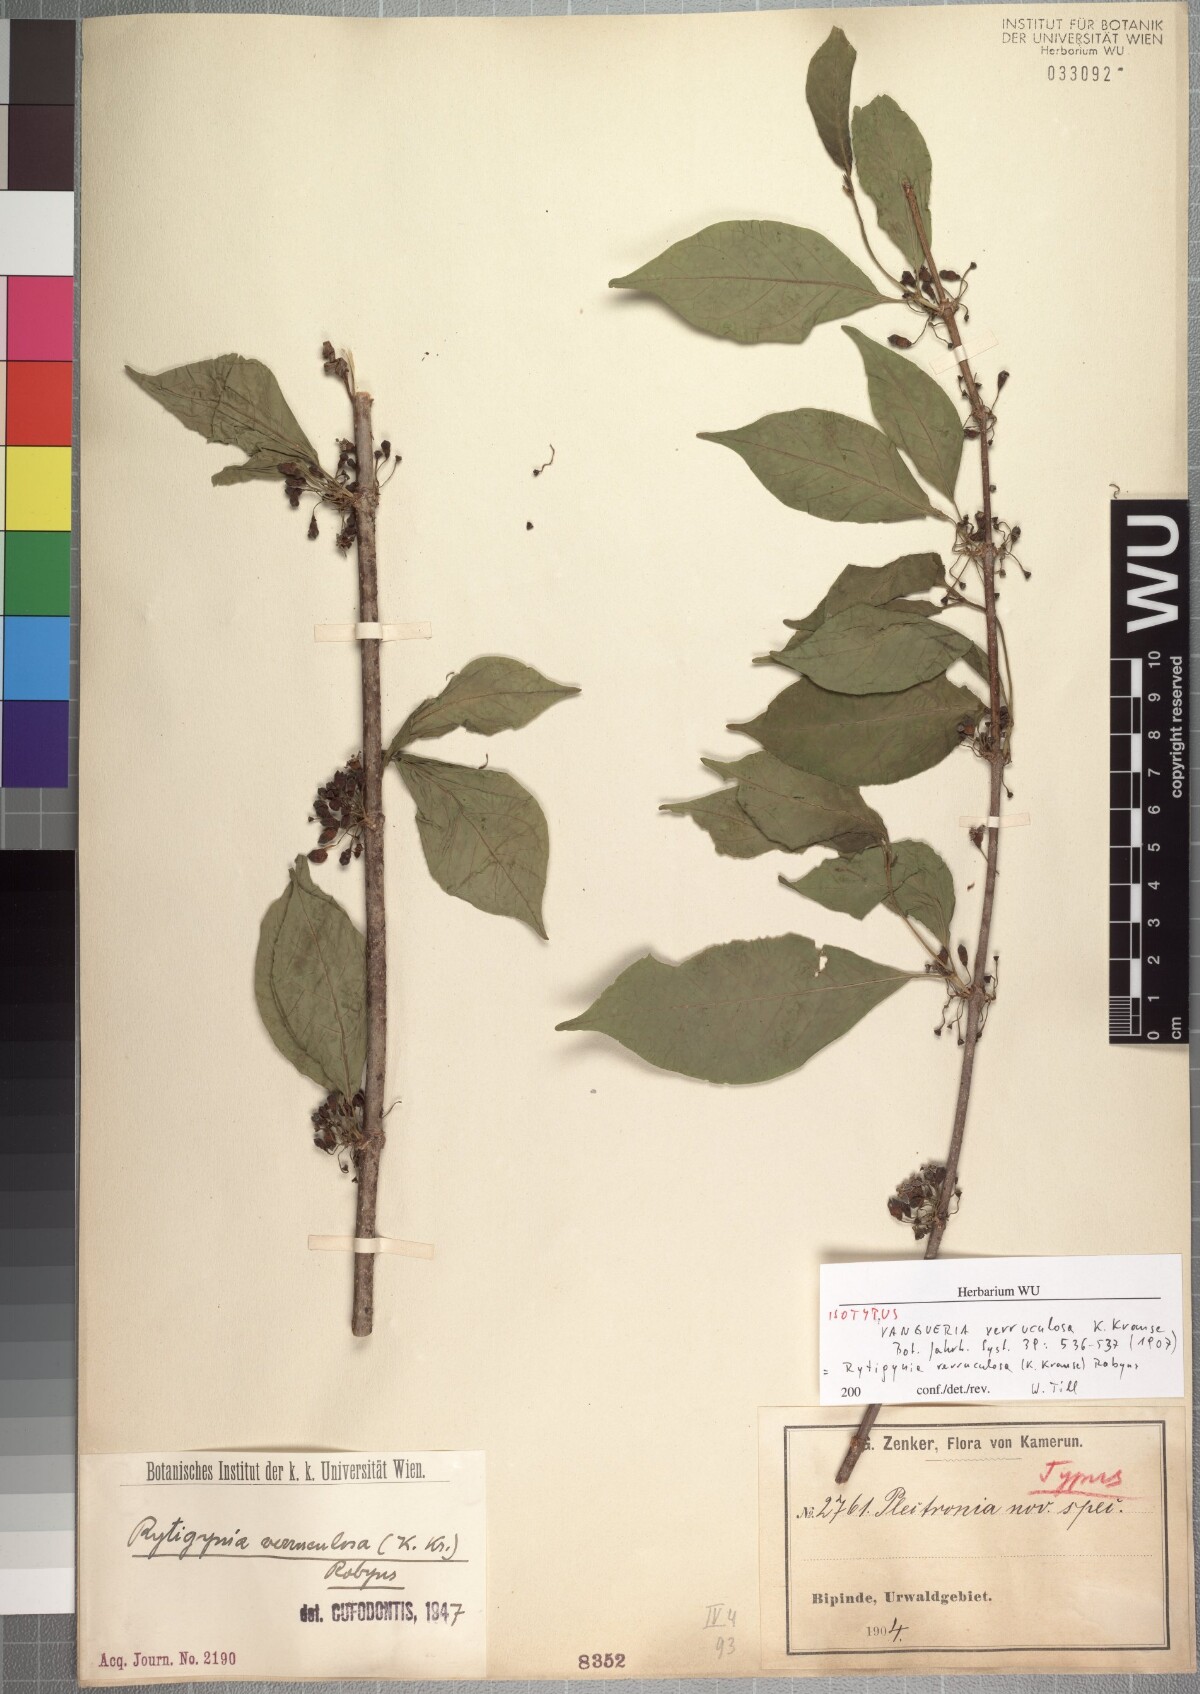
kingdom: Plantae
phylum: Tracheophyta
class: Magnoliopsida
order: Gentianales
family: Rubiaceae
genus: Rytigynia
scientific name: Rytigynia verruculosa
